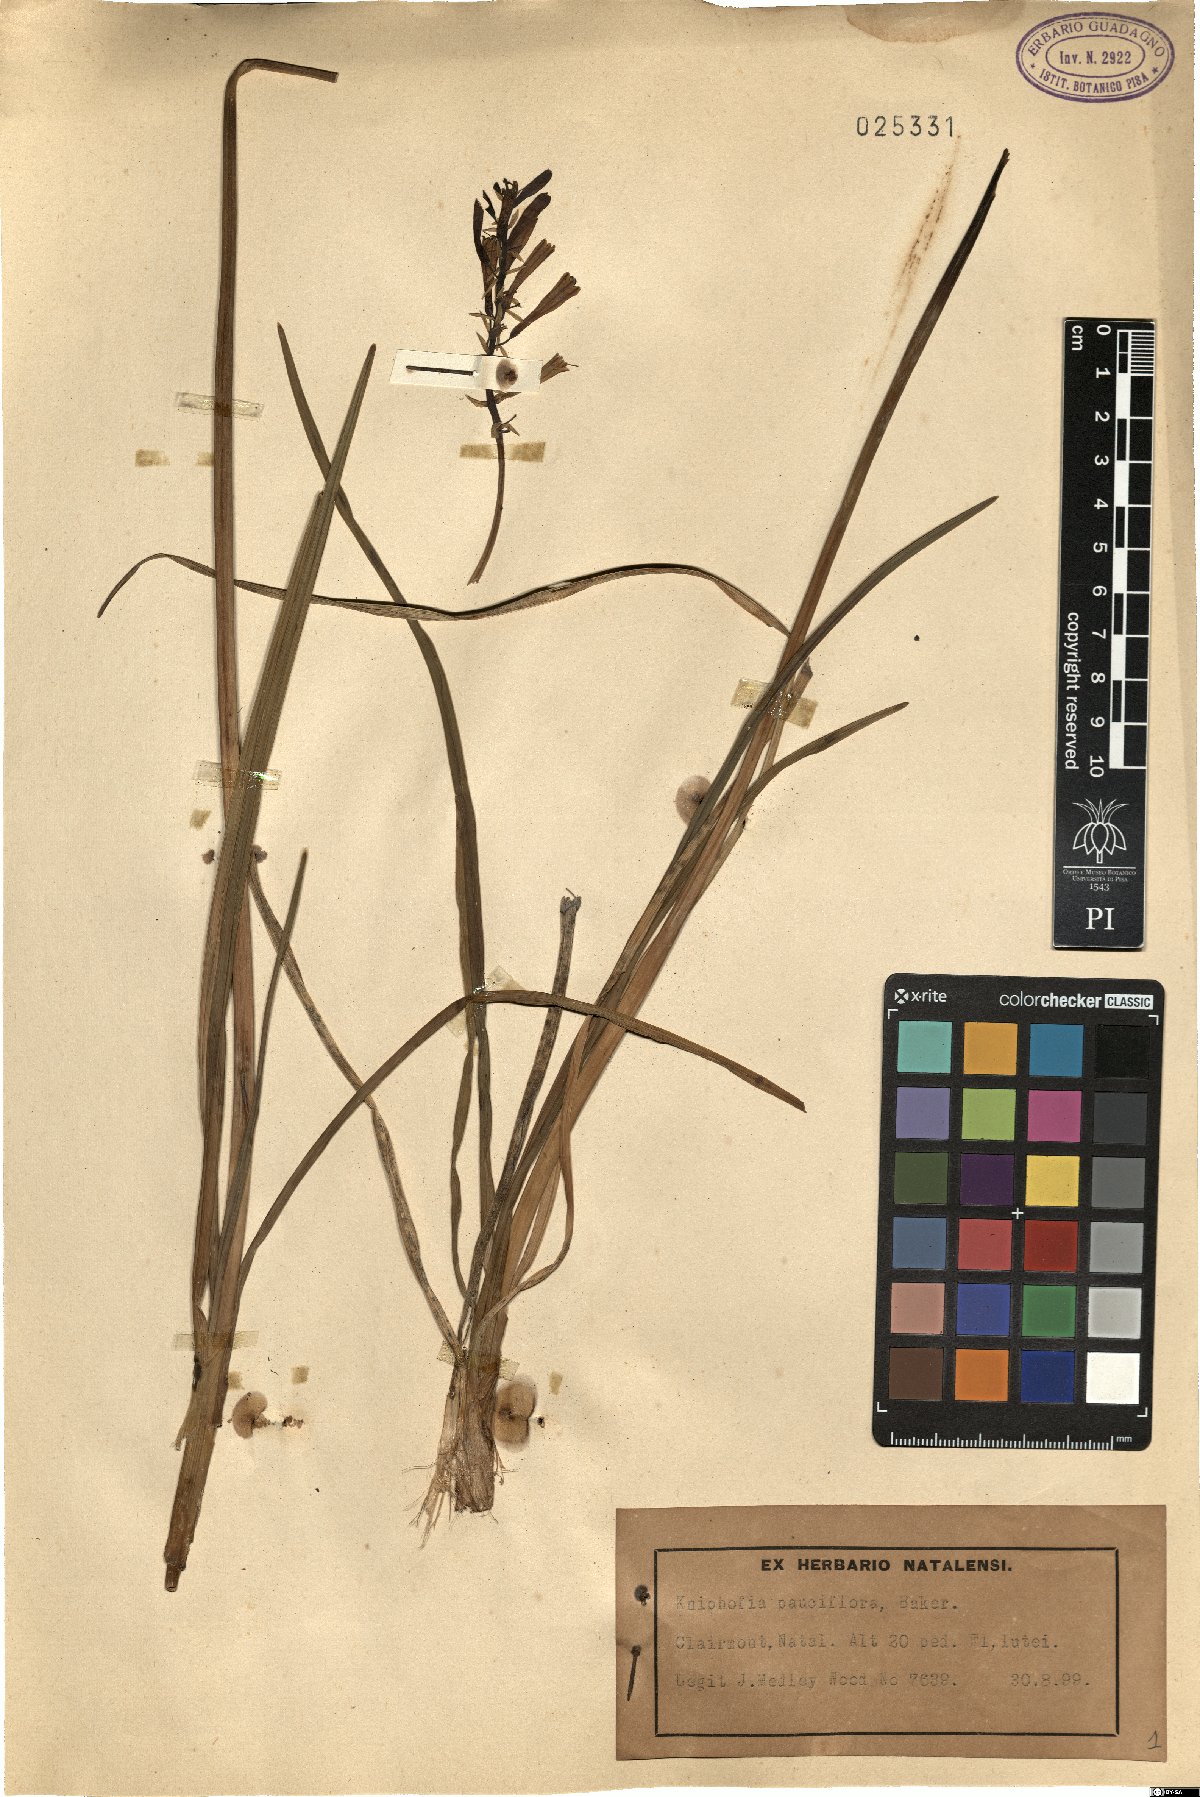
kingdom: Plantae
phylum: Tracheophyta
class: Liliopsida
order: Asparagales
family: Asphodelaceae
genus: Kniphofia
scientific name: Kniphofia pauciflora
